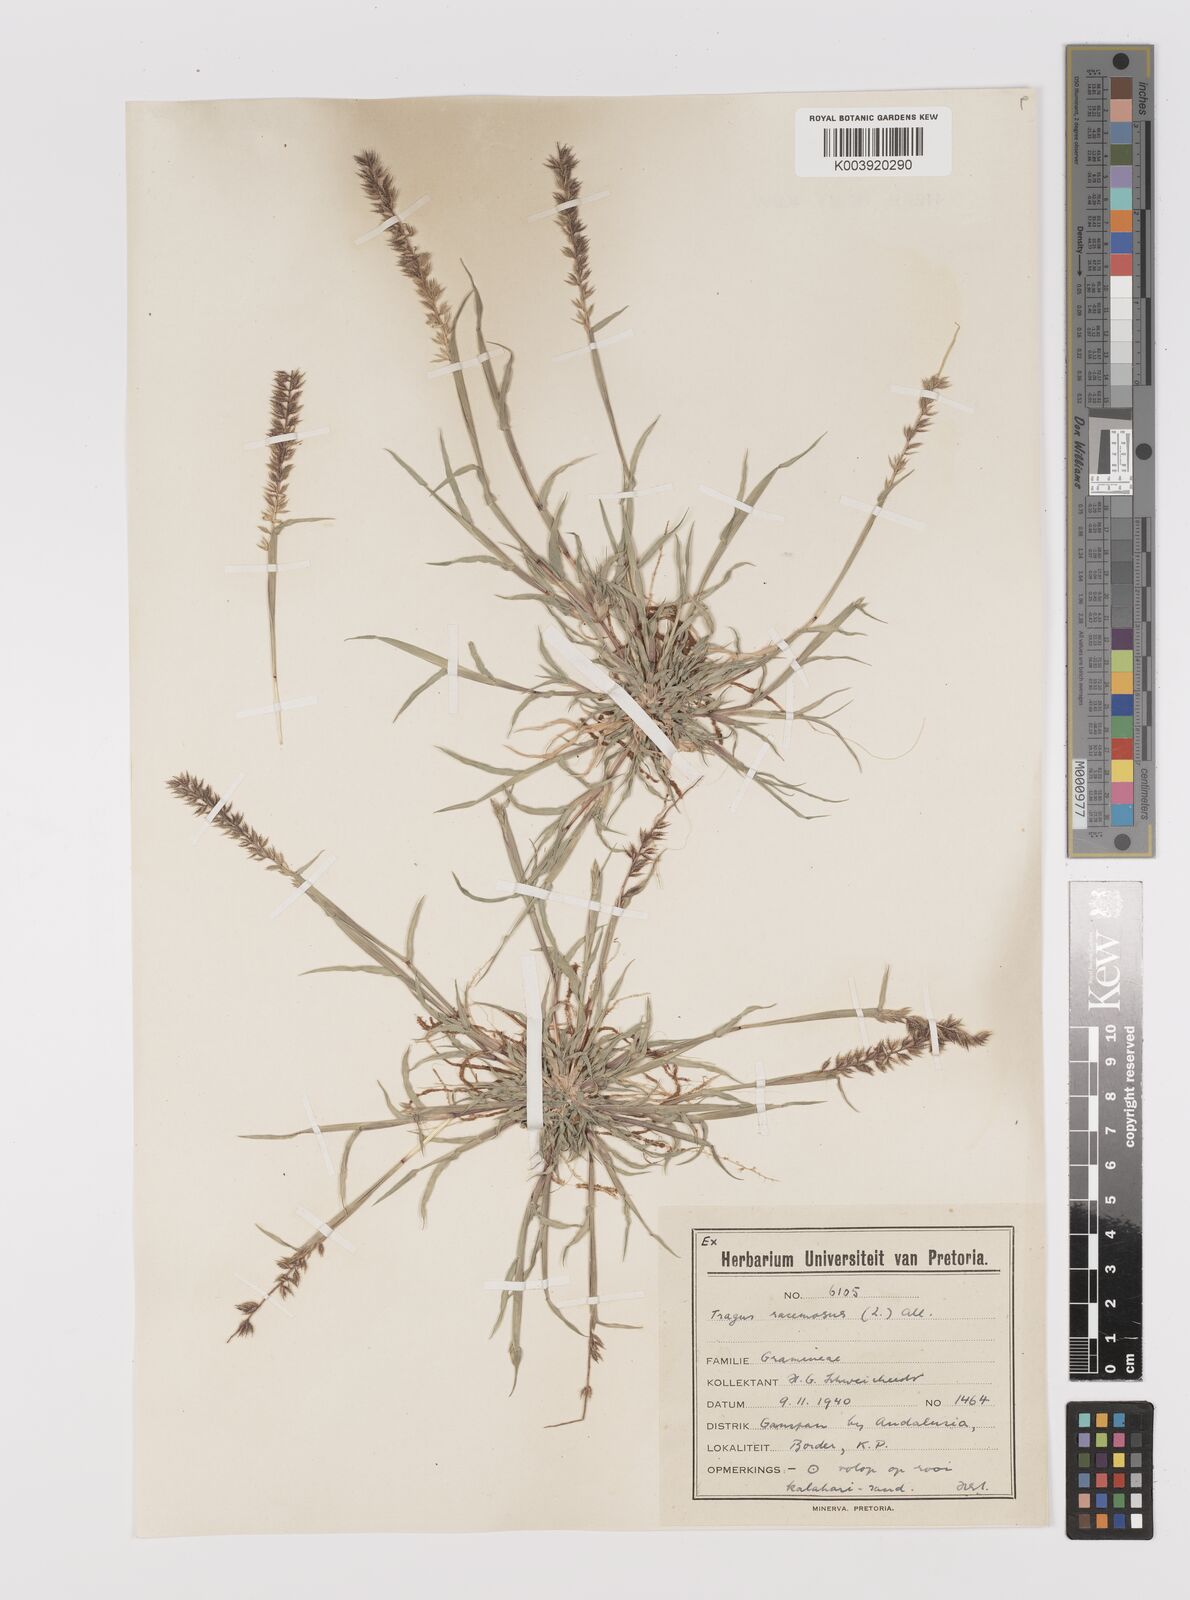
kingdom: Plantae
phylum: Tracheophyta
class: Liliopsida
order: Poales
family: Poaceae
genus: Tragus
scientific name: Tragus racemosus
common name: European bur-grass
